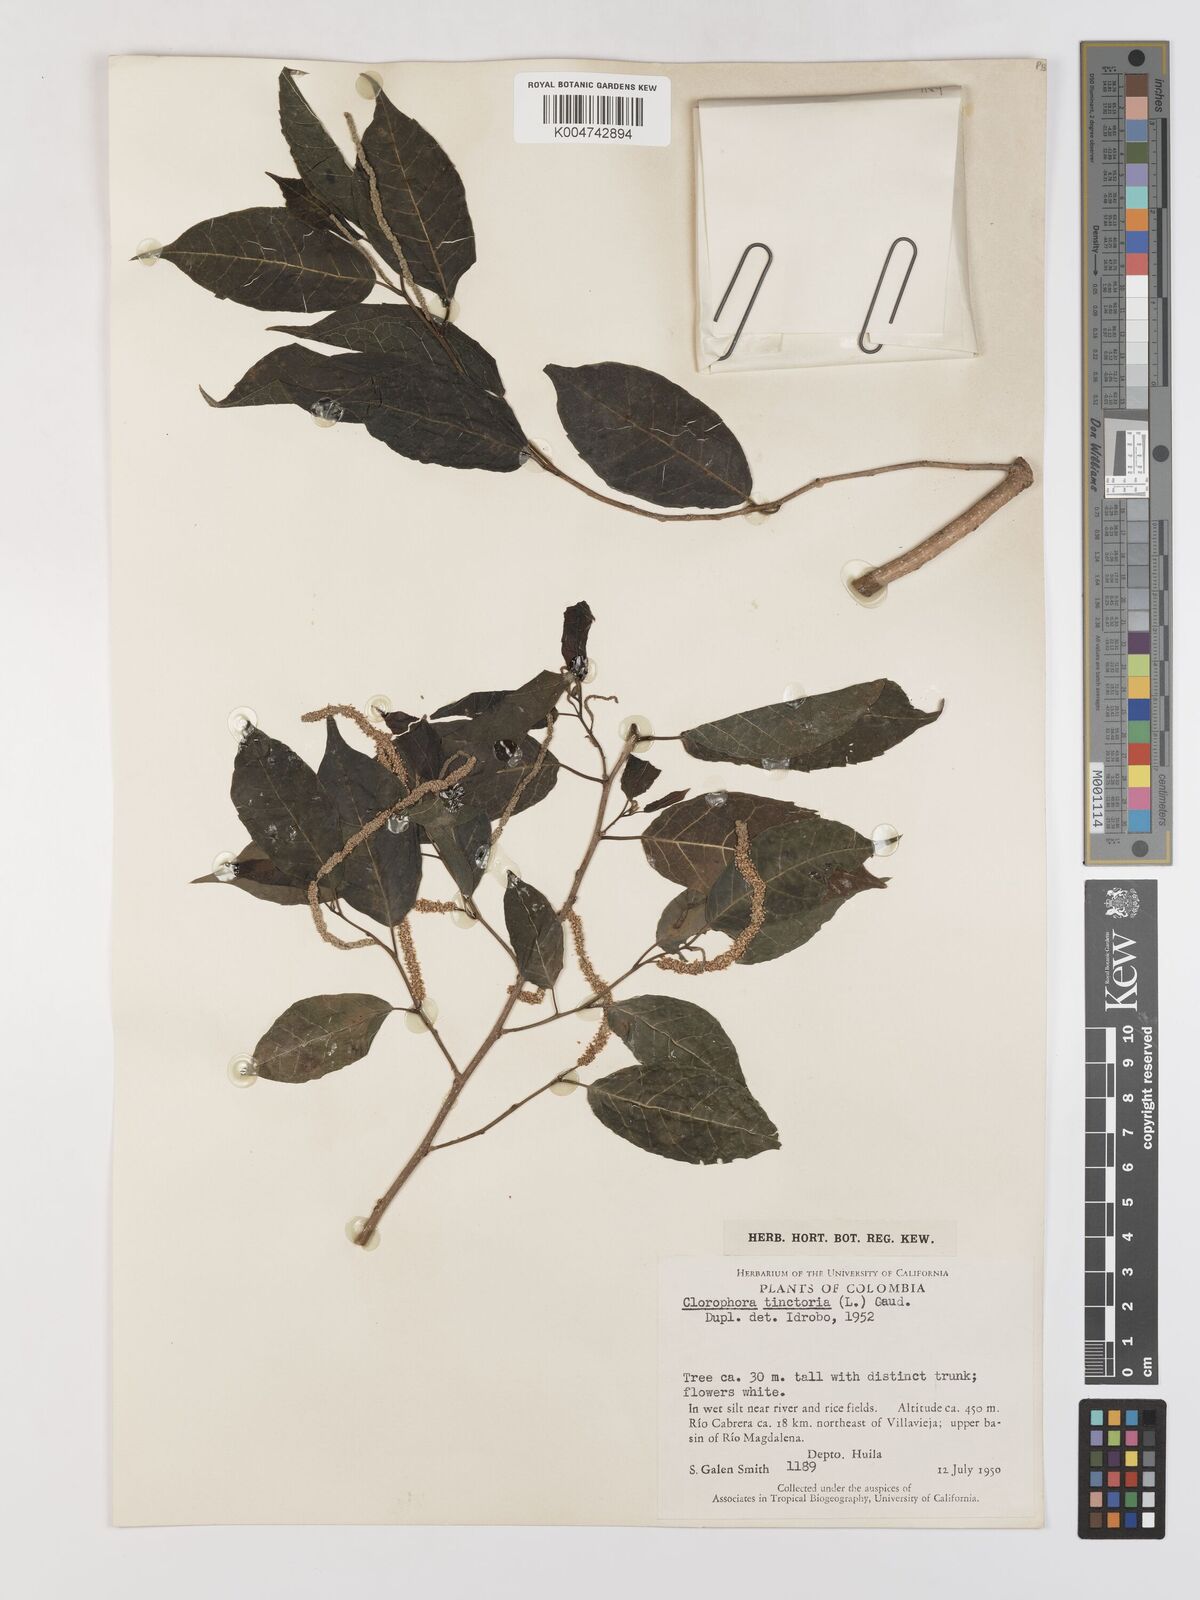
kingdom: Plantae
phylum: Tracheophyta
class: Magnoliopsida
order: Rosales
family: Moraceae
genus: Maclura
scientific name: Maclura tinctoria
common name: Old fustic
